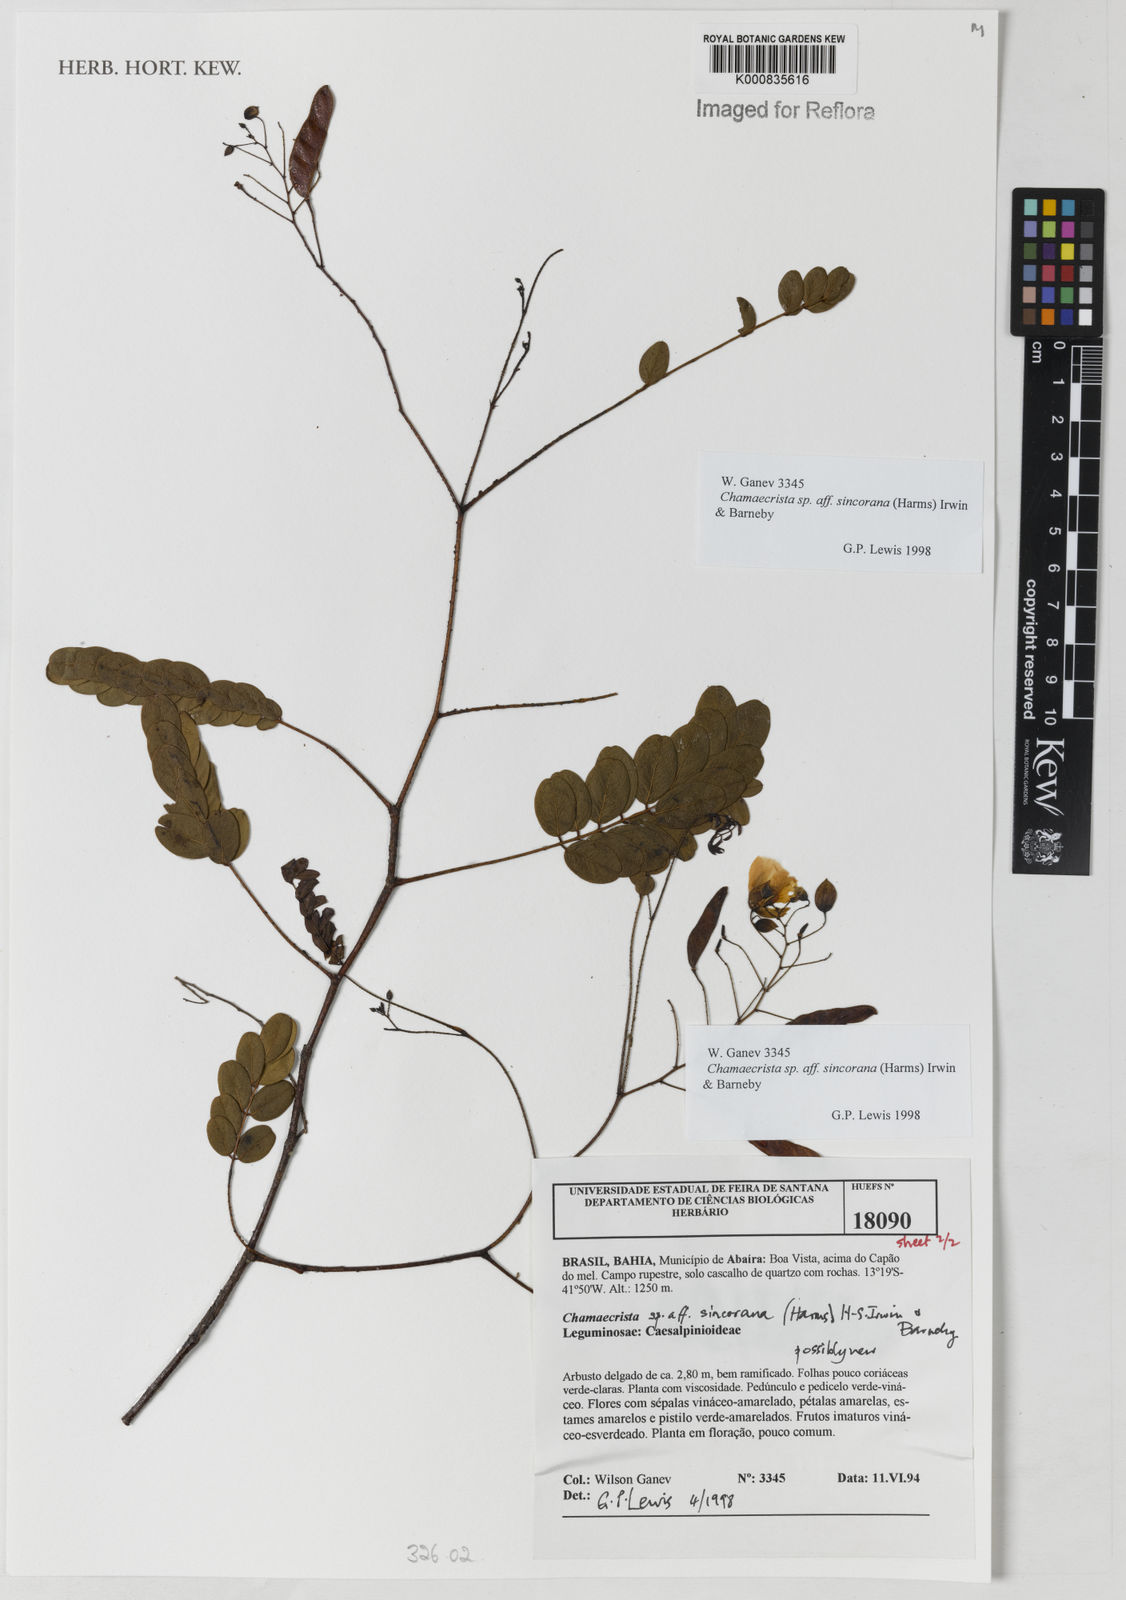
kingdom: Plantae
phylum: Tracheophyta
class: Magnoliopsida
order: Fabales
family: Fabaceae
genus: Chamaecrista
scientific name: Chamaecrista sincorana
